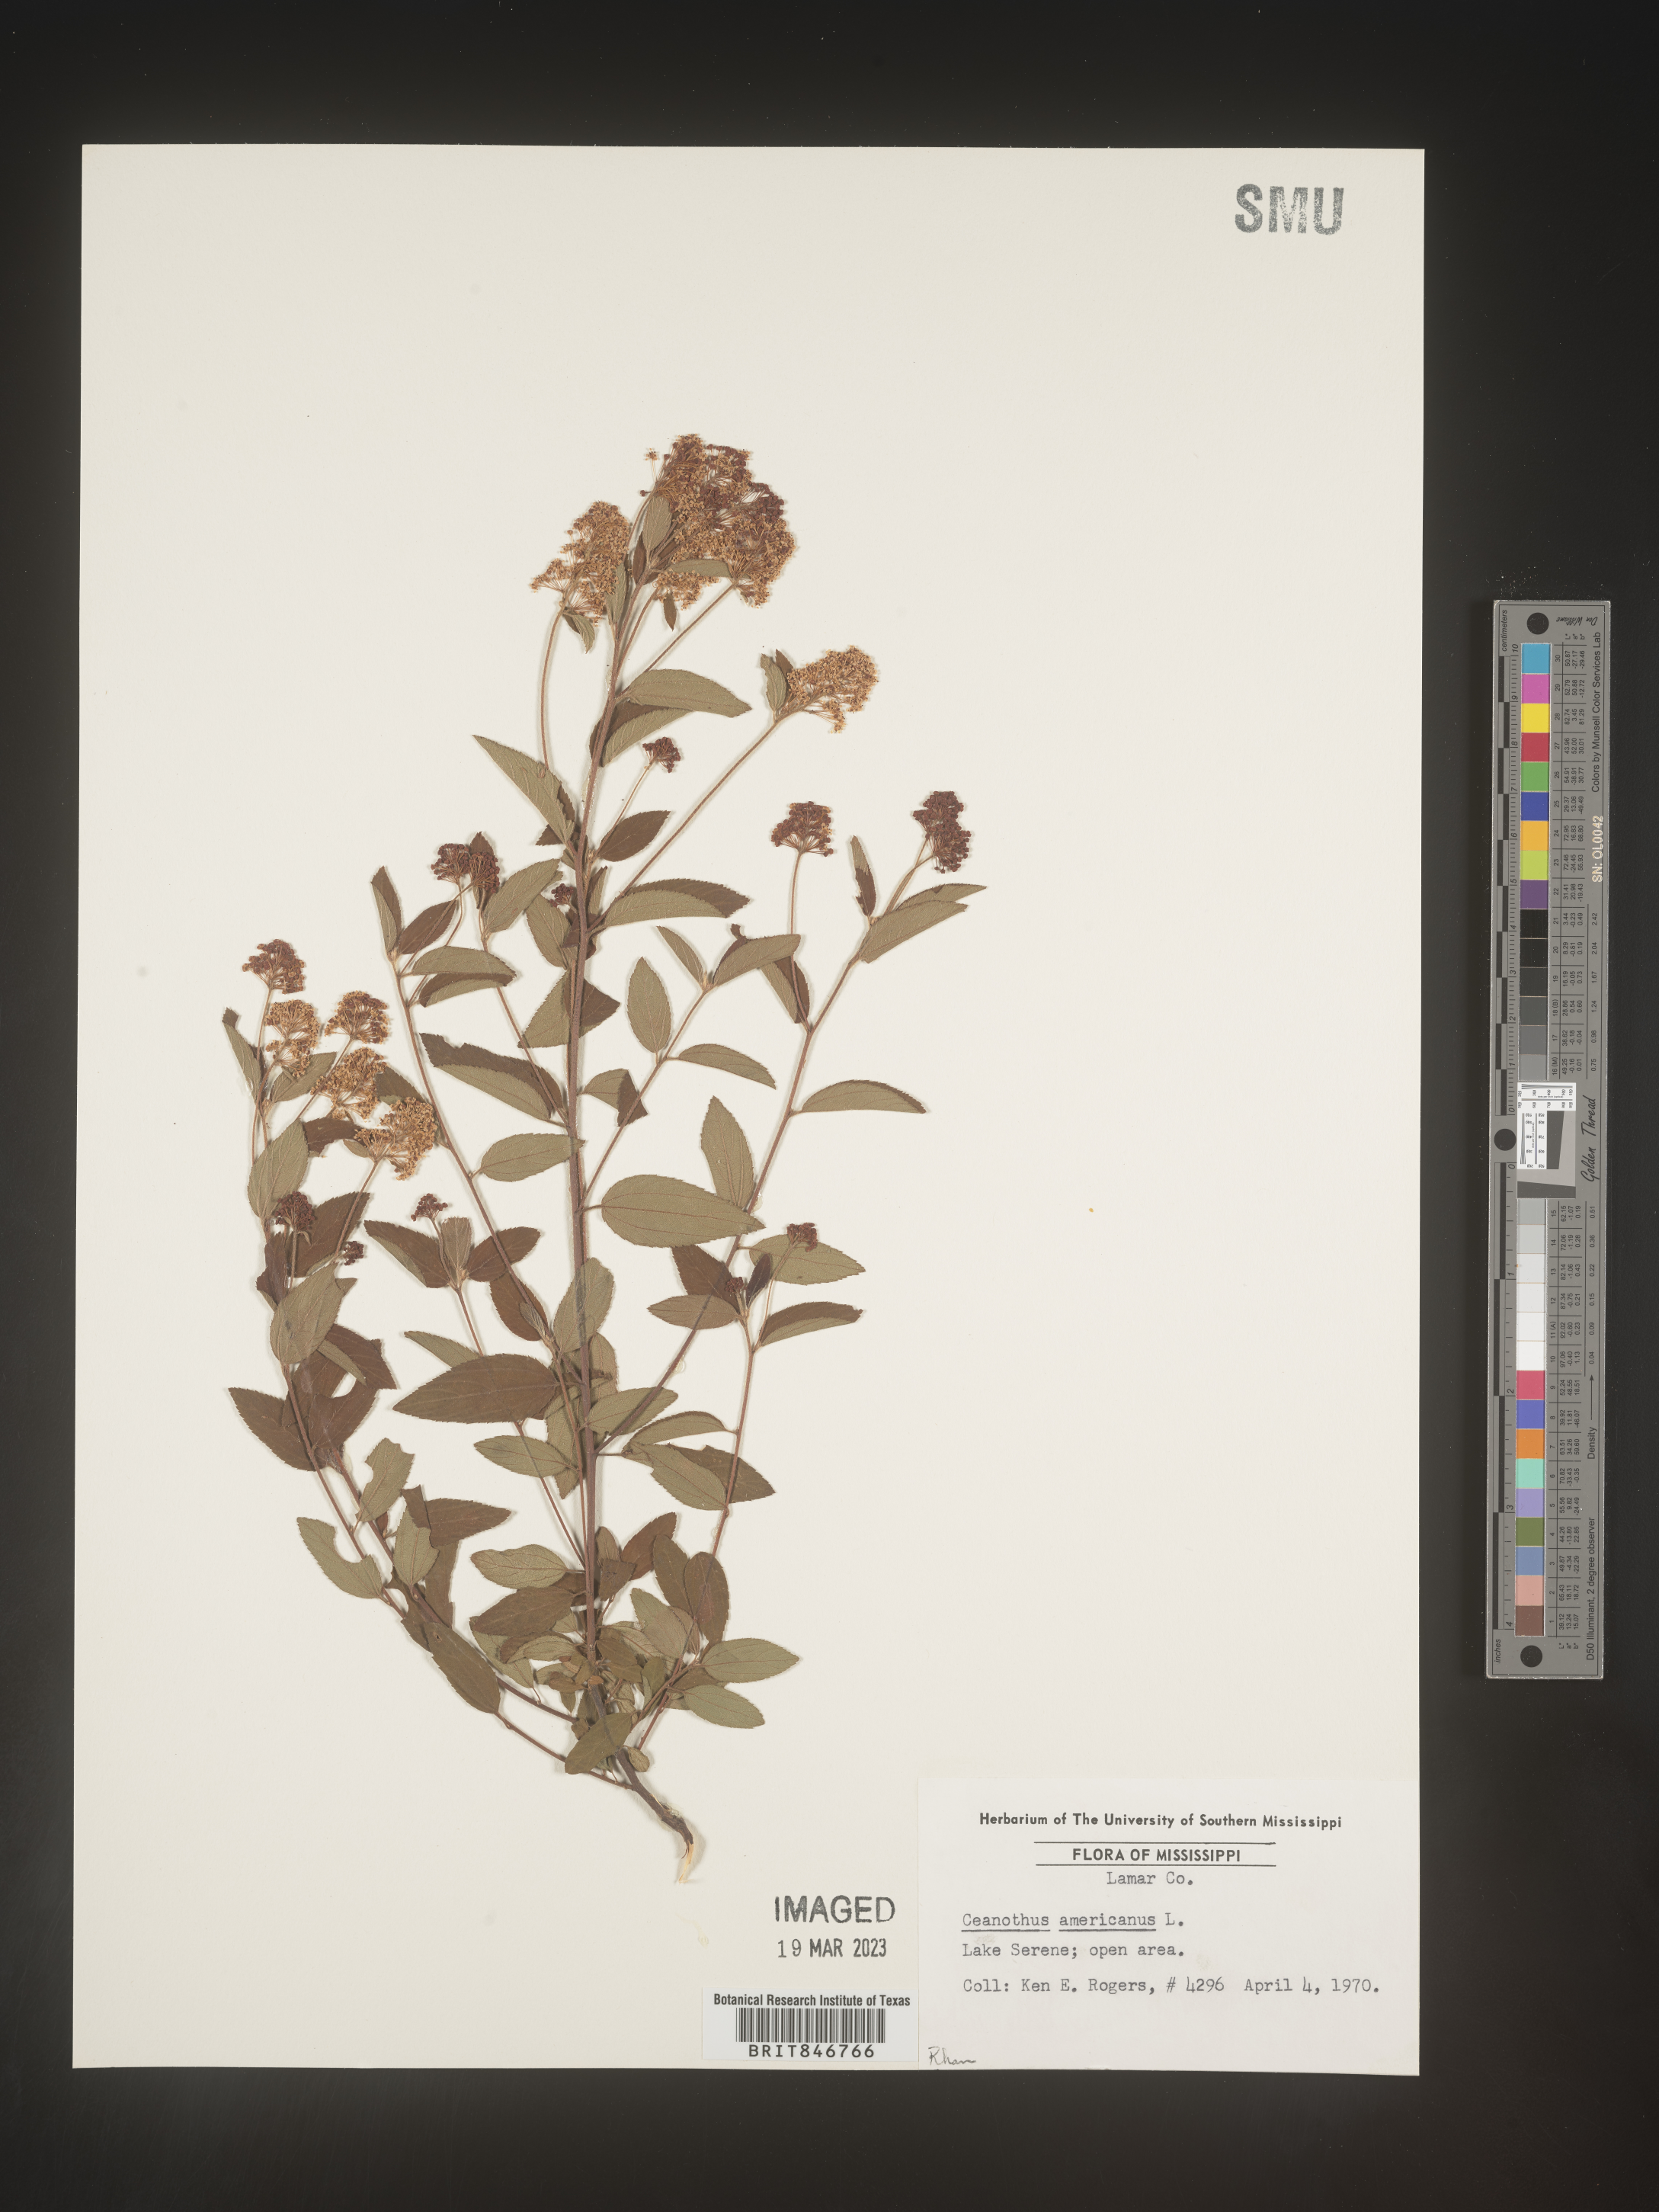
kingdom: Plantae
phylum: Tracheophyta
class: Magnoliopsida
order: Rosales
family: Rhamnaceae
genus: Ceanothus
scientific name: Ceanothus americanus
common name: Redroot
